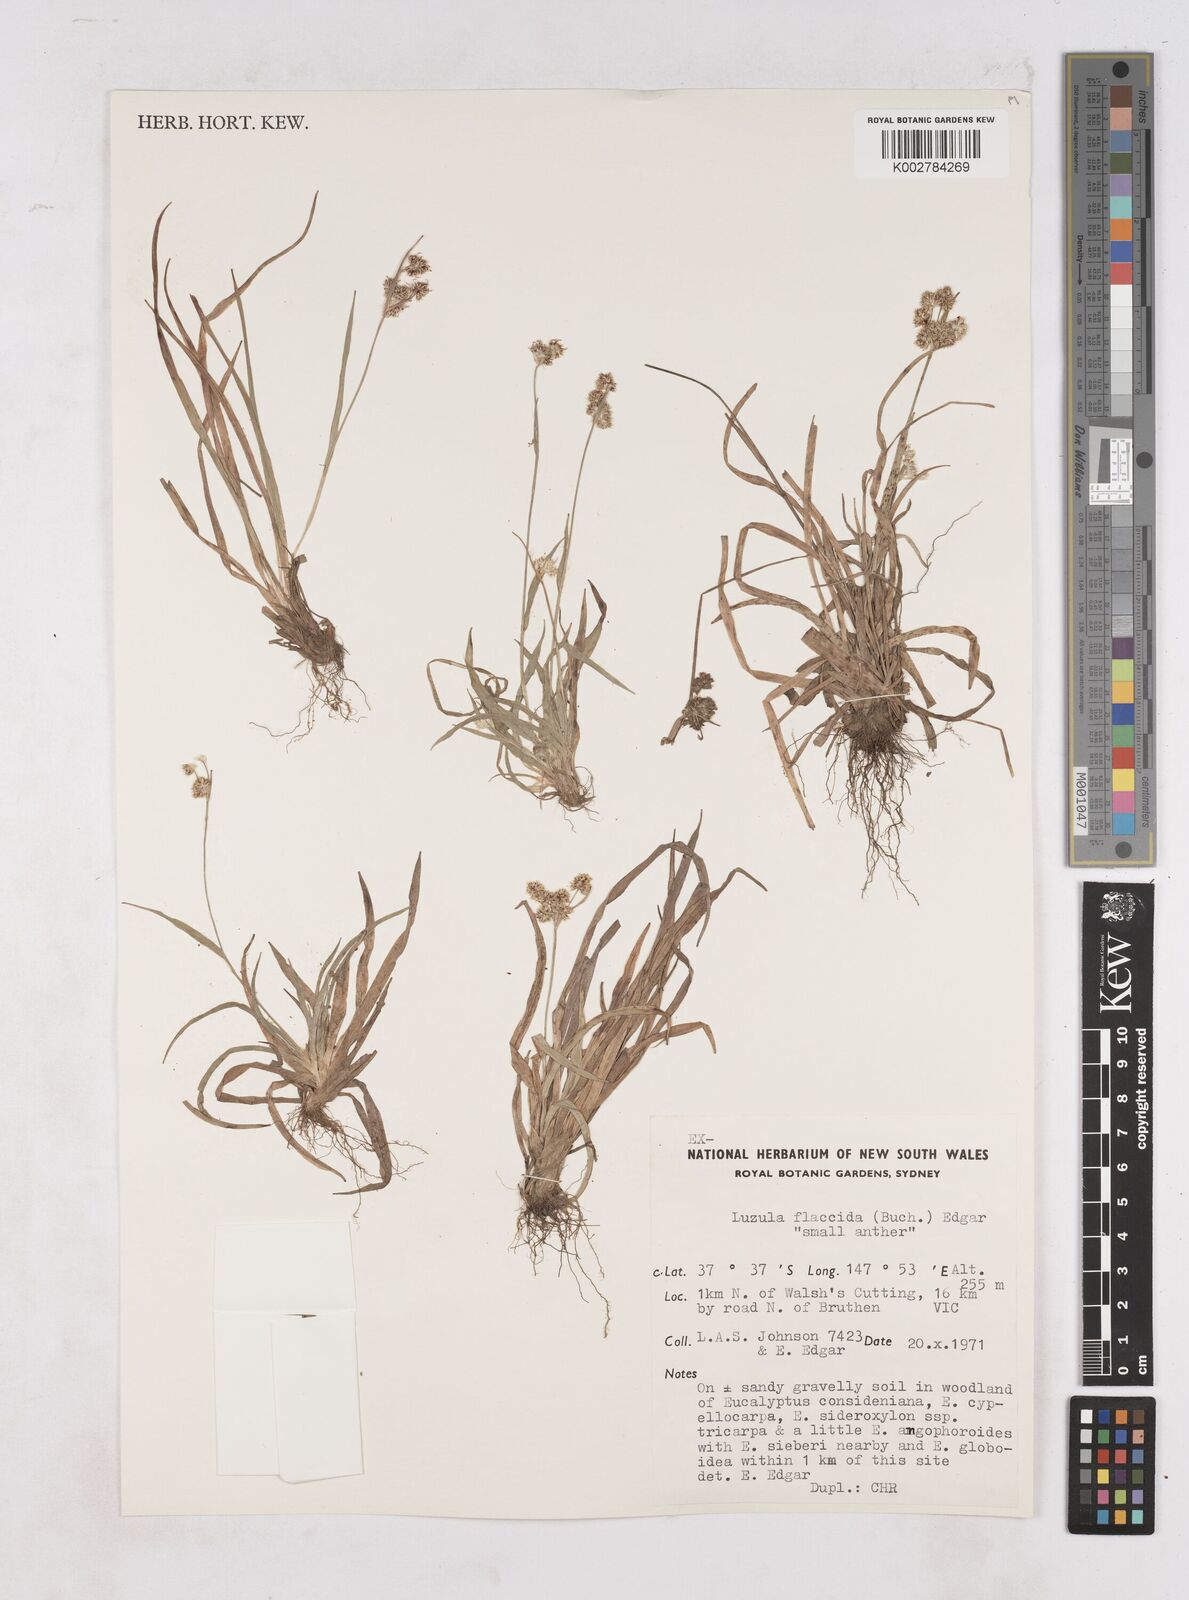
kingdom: Plantae
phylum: Tracheophyta
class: Liliopsida
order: Poales
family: Juncaceae
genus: Luzula
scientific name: Luzula flaccida
